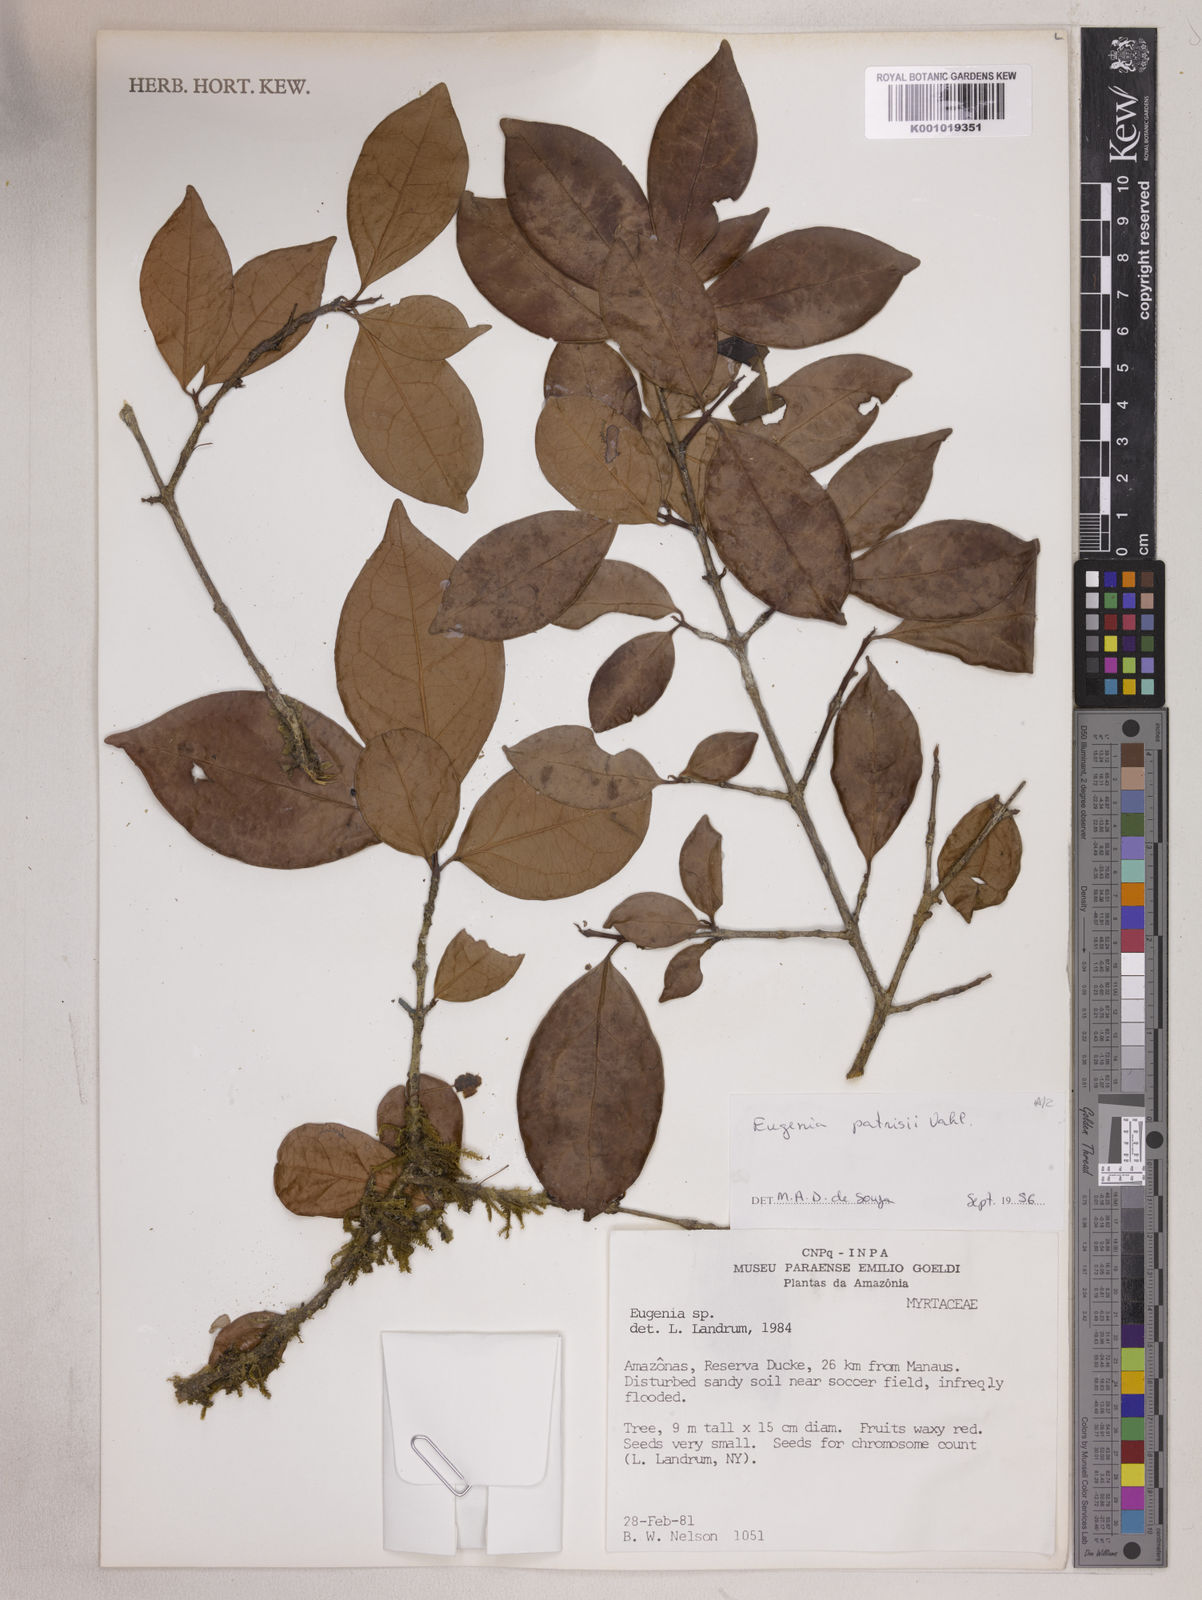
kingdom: Plantae
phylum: Tracheophyta
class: Magnoliopsida
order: Myrtales
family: Myrtaceae
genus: Eugenia
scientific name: Eugenia patrisii
